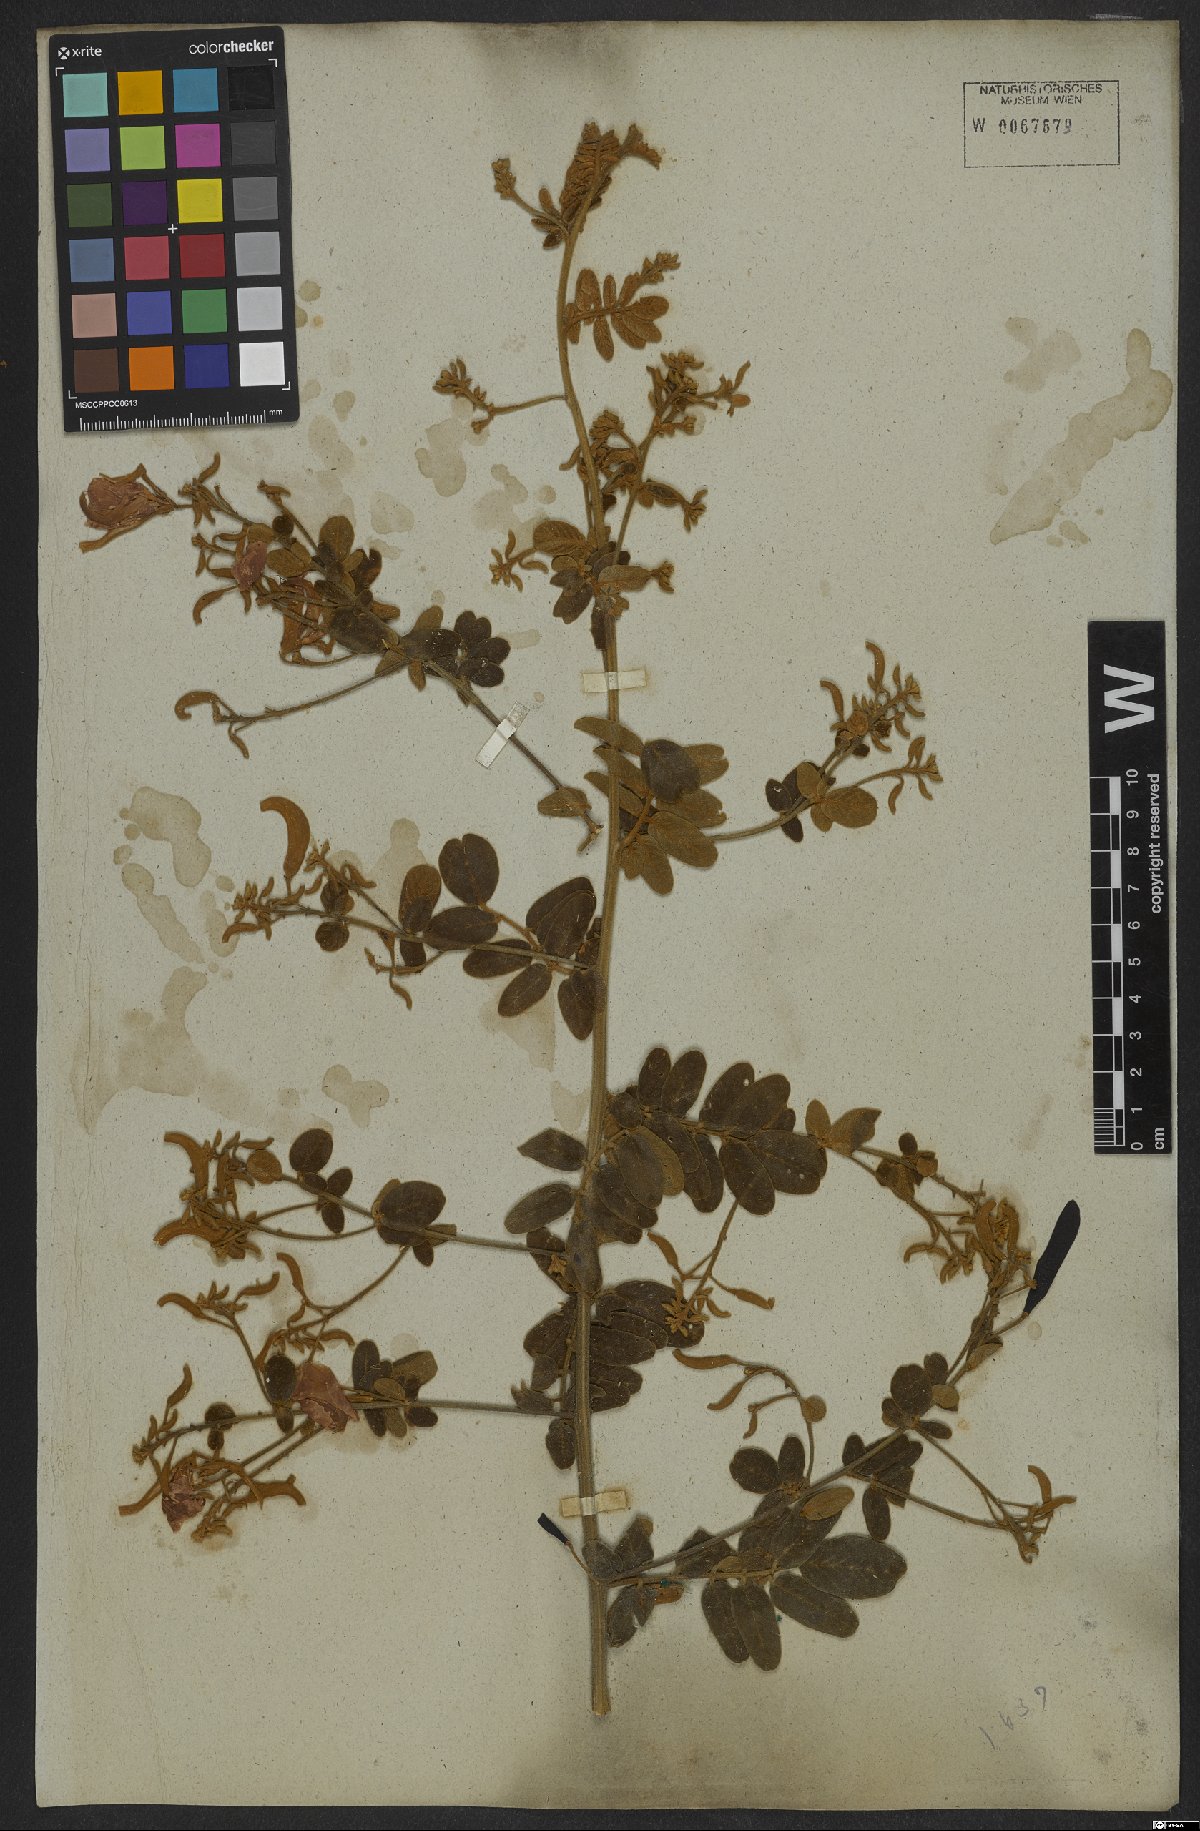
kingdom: Plantae
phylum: Tracheophyta
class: Magnoliopsida
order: Fabales
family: Fabaceae
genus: Harpalyce
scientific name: Harpalyce brasiliana
